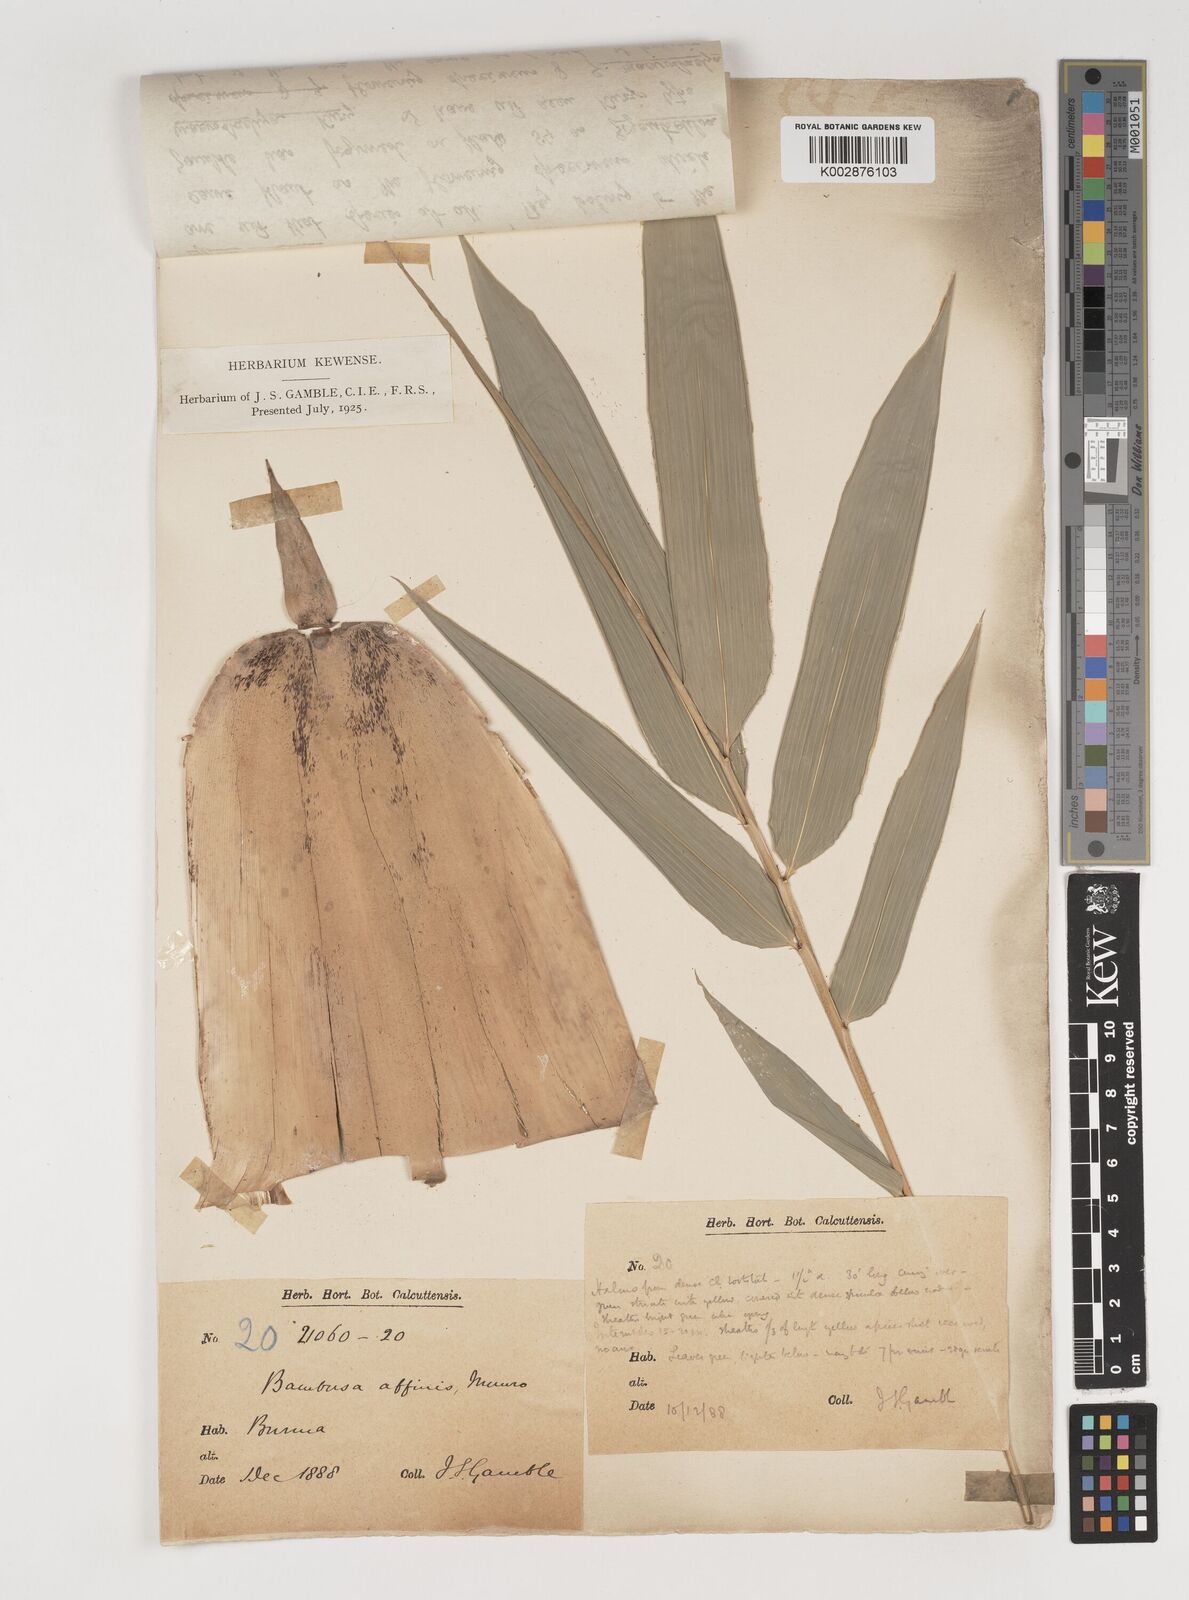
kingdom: Plantae
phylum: Tracheophyta
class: Liliopsida
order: Poales
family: Poaceae
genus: Bambusa
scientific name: Bambusa affinis
